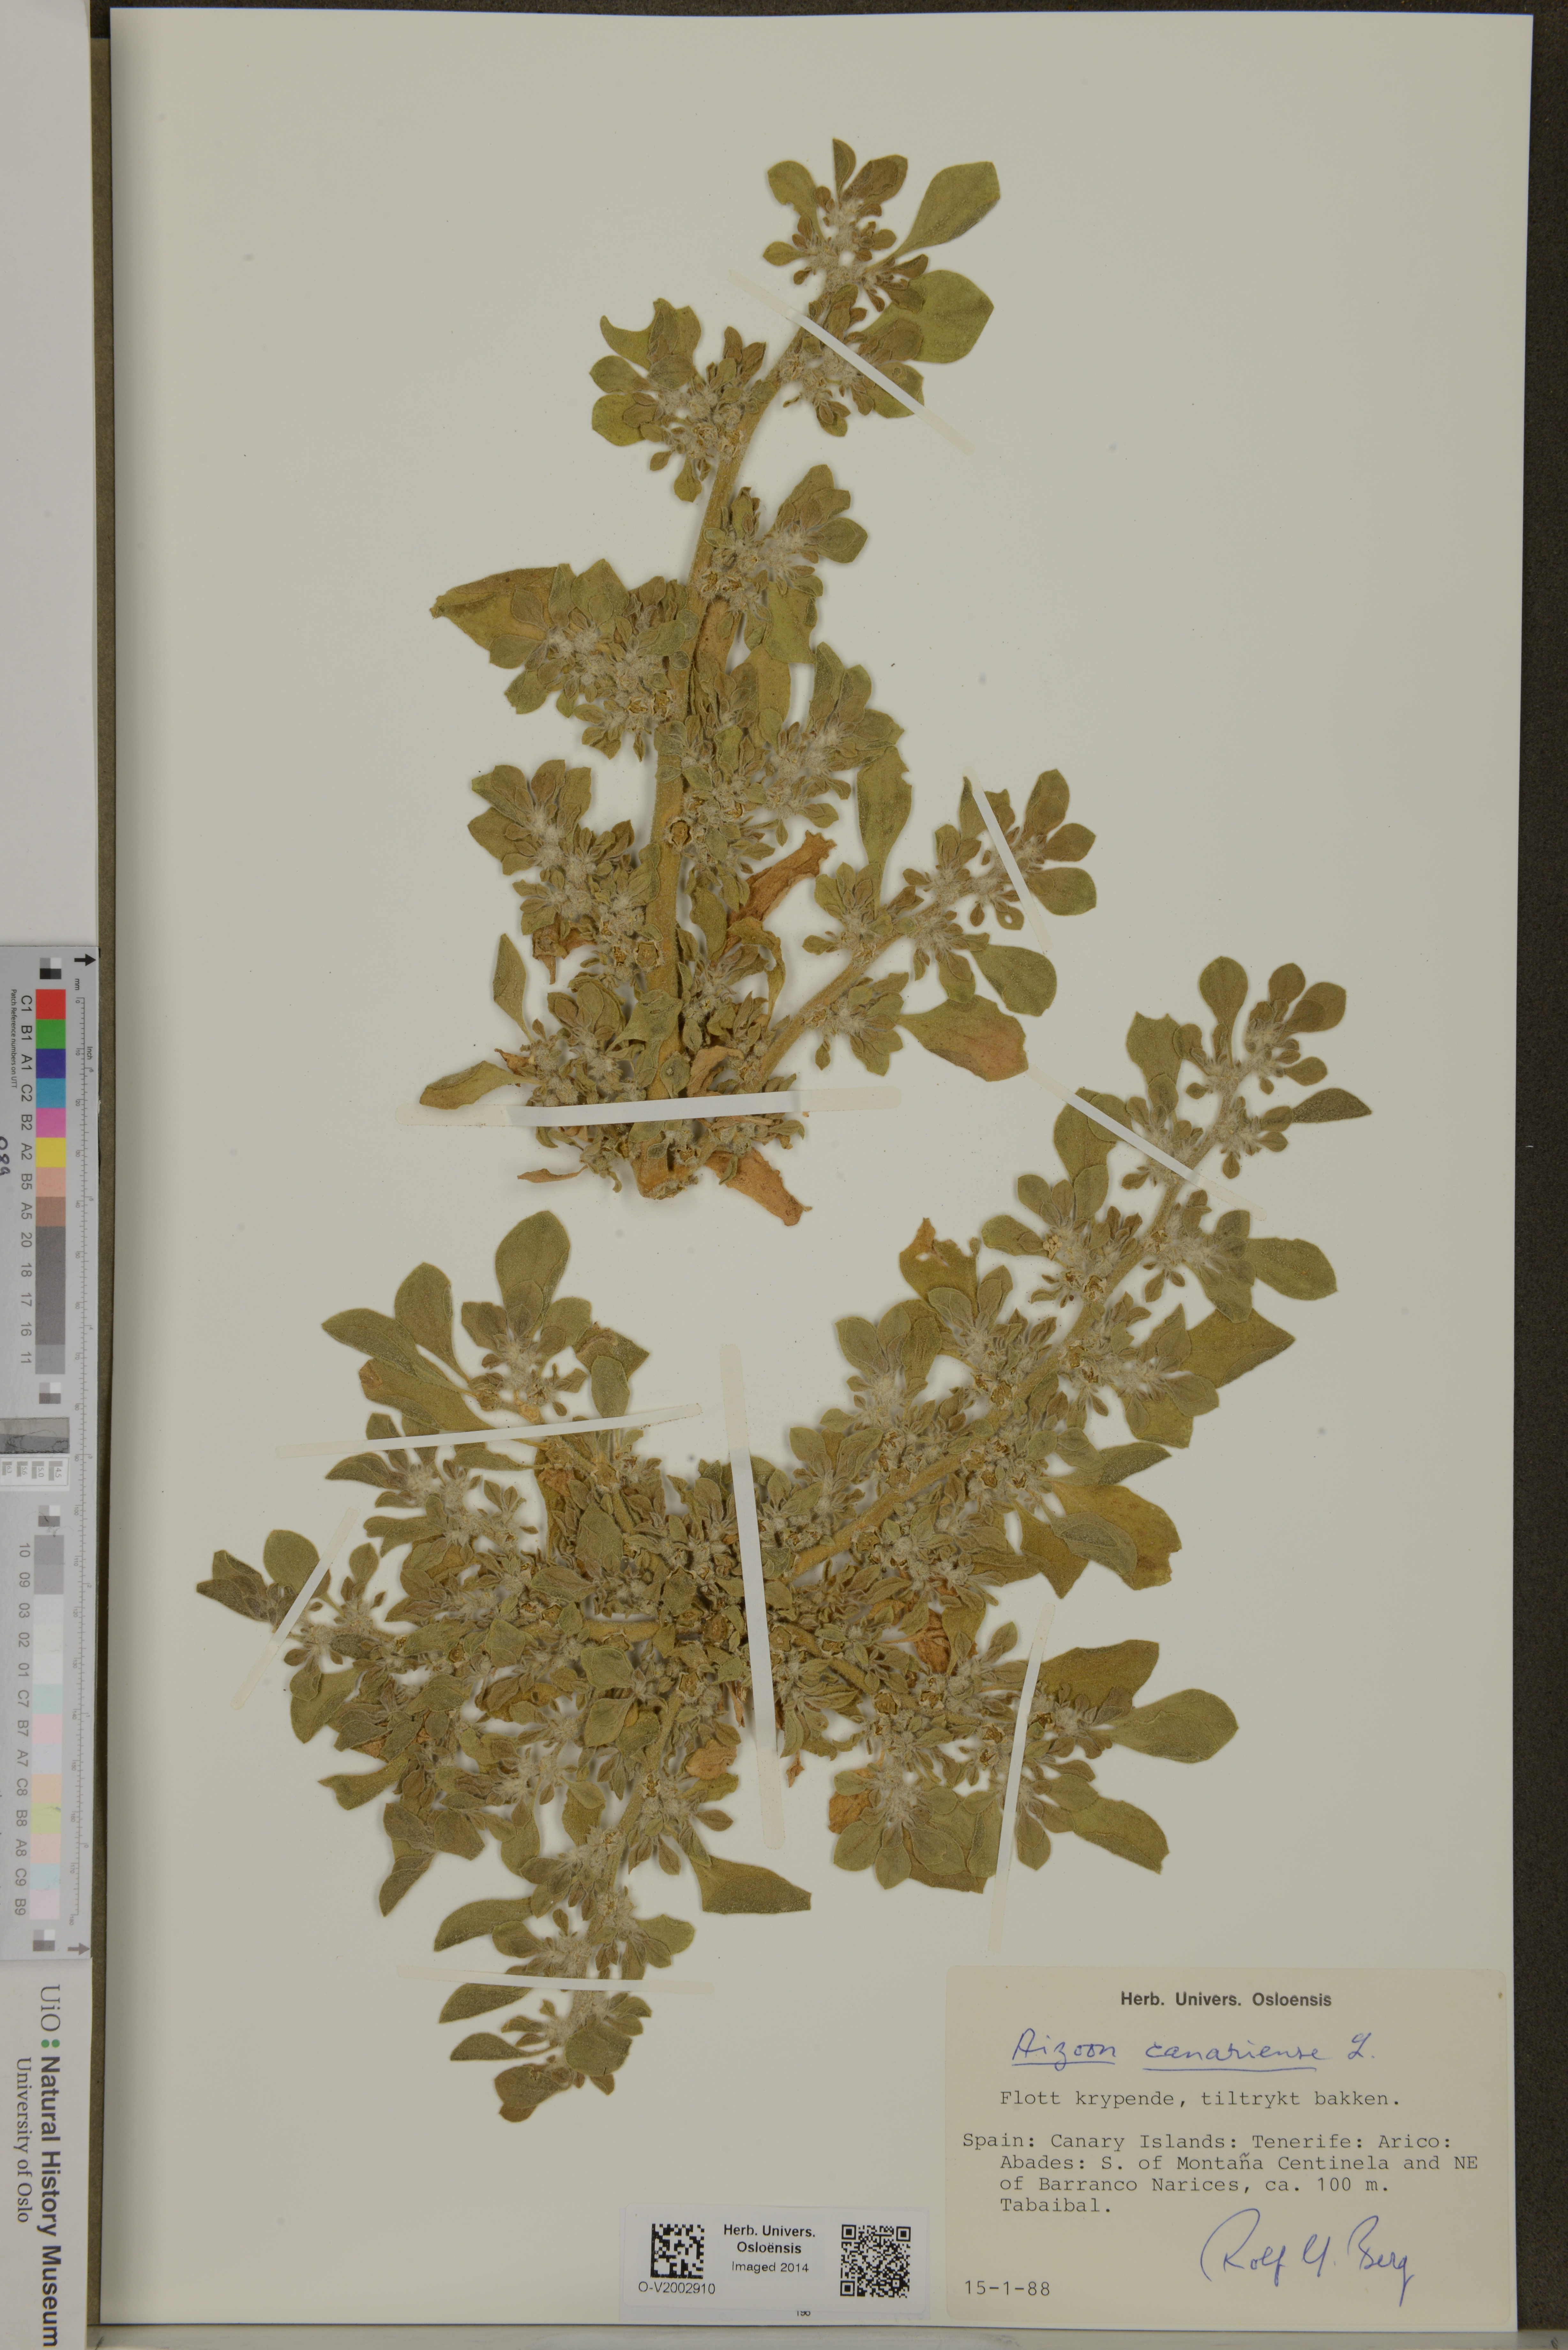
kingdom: Plantae
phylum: Tracheophyta
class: Magnoliopsida
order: Caryophyllales
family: Aizoaceae
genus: Aizoon
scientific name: Aizoon canariense
